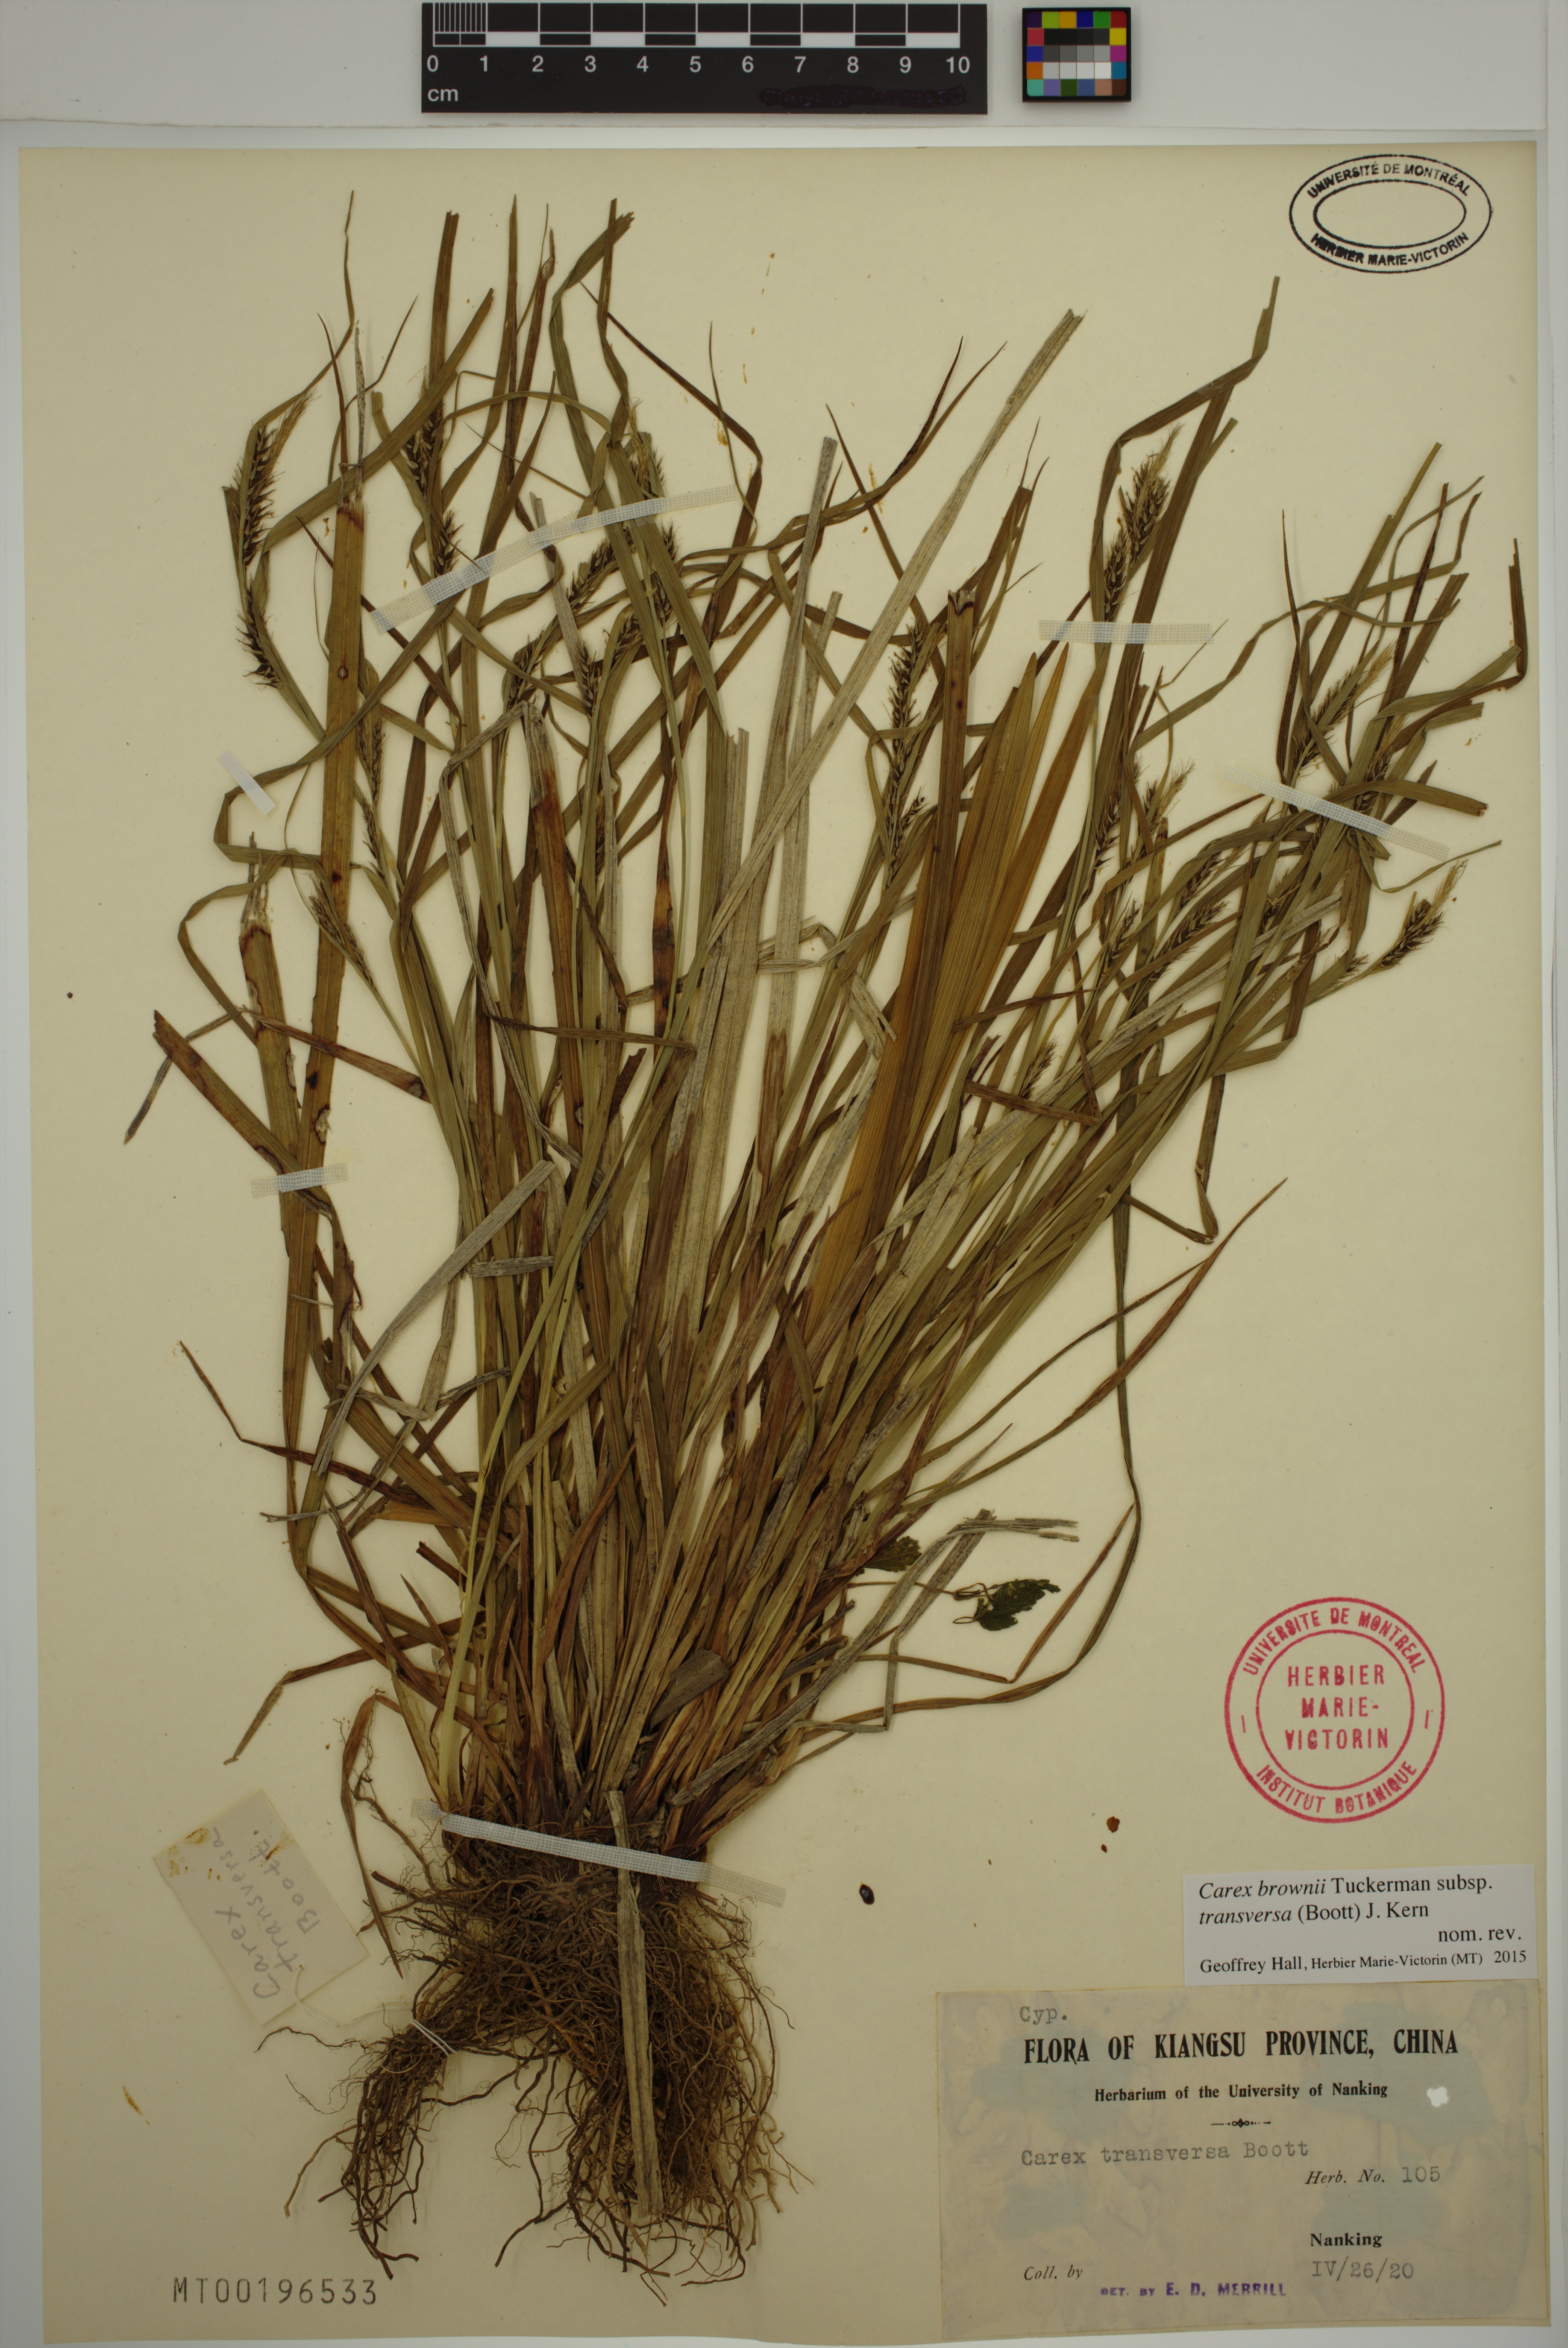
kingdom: Plantae
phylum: Tracheophyta
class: Liliopsida
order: Poales
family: Cyperaceae
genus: Carex
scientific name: Carex brownii
